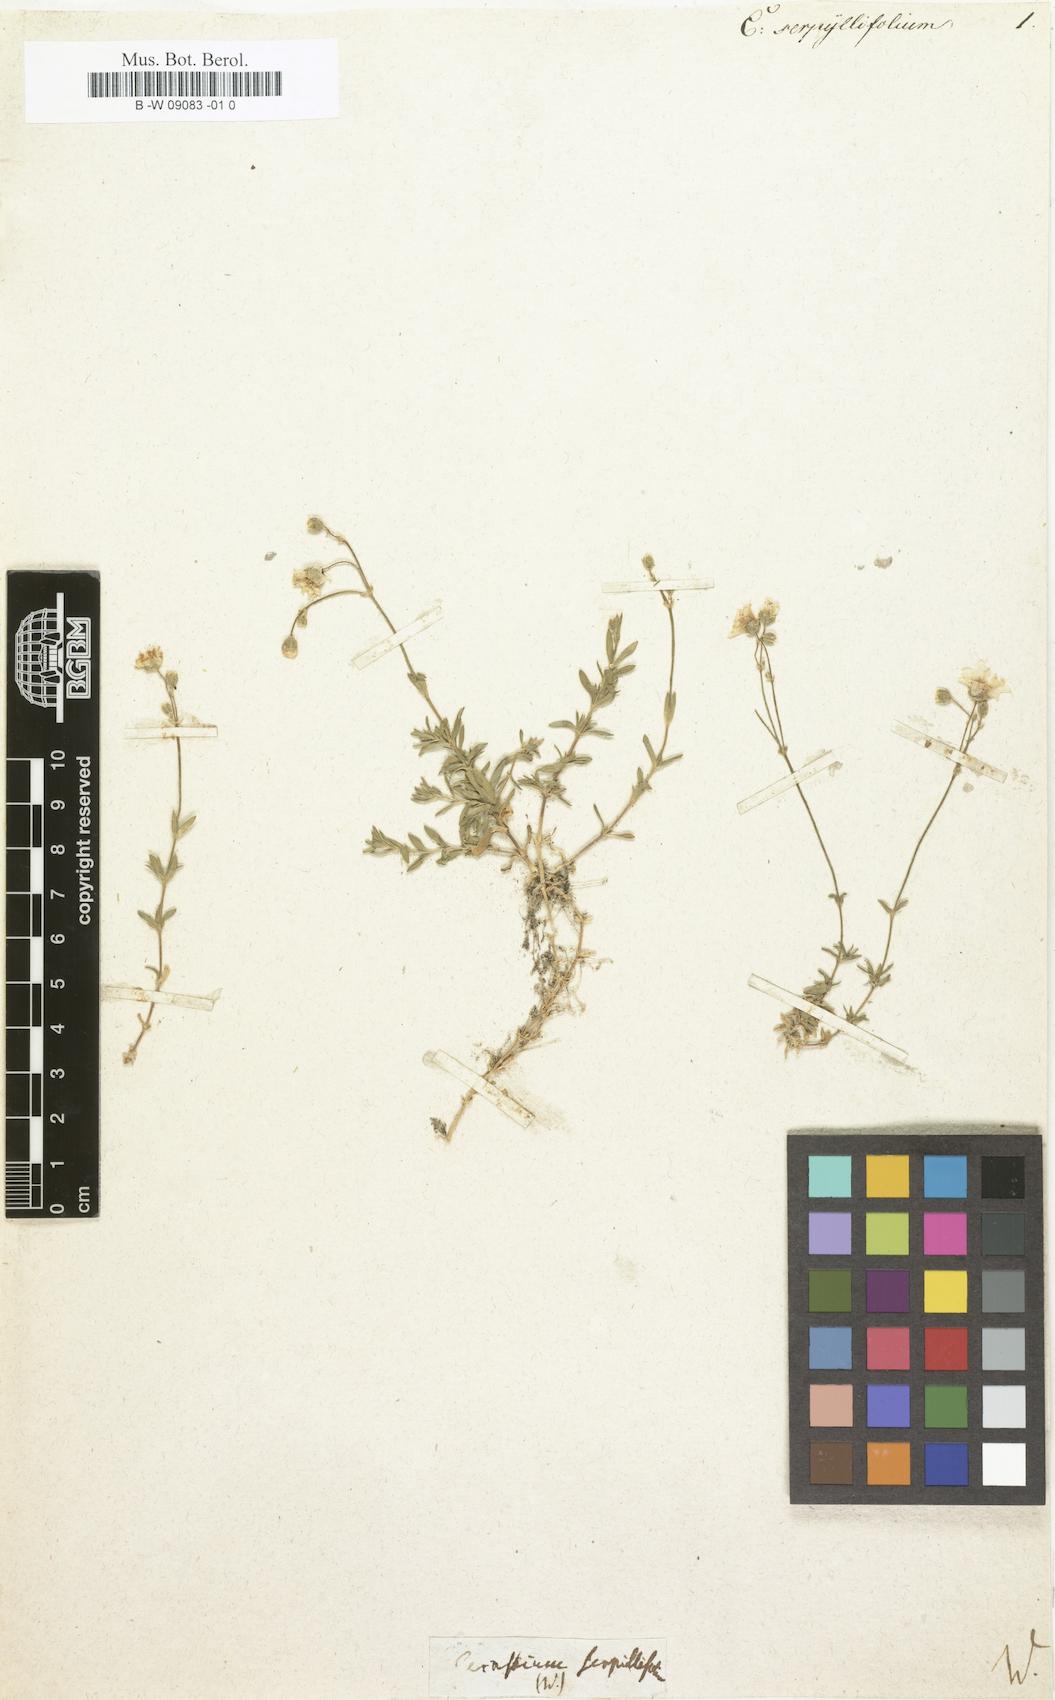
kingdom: Plantae
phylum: Tracheophyta
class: Magnoliopsida
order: Caryophyllales
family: Caryophyllaceae
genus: Cerastium
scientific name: Cerastium arvense
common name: Field mouse-ear
